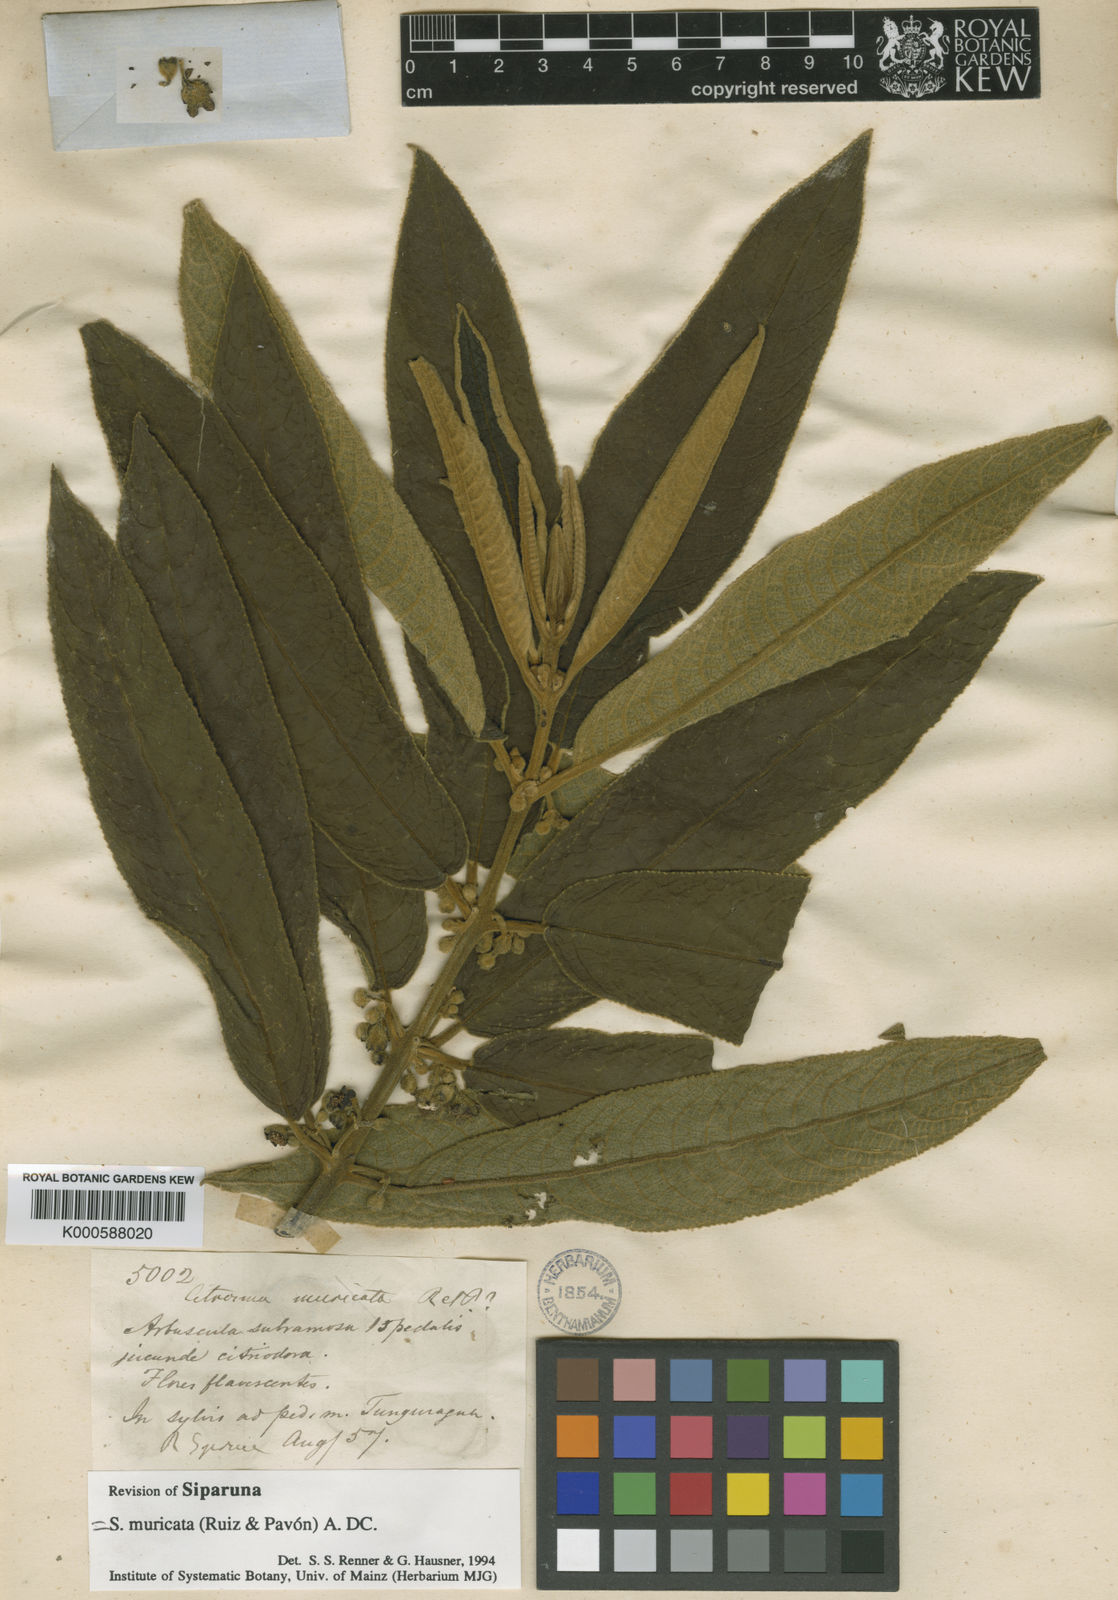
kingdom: Plantae
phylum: Tracheophyta
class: Magnoliopsida
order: Laurales
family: Siparunaceae
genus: Siparuna
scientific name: Siparuna muricata
